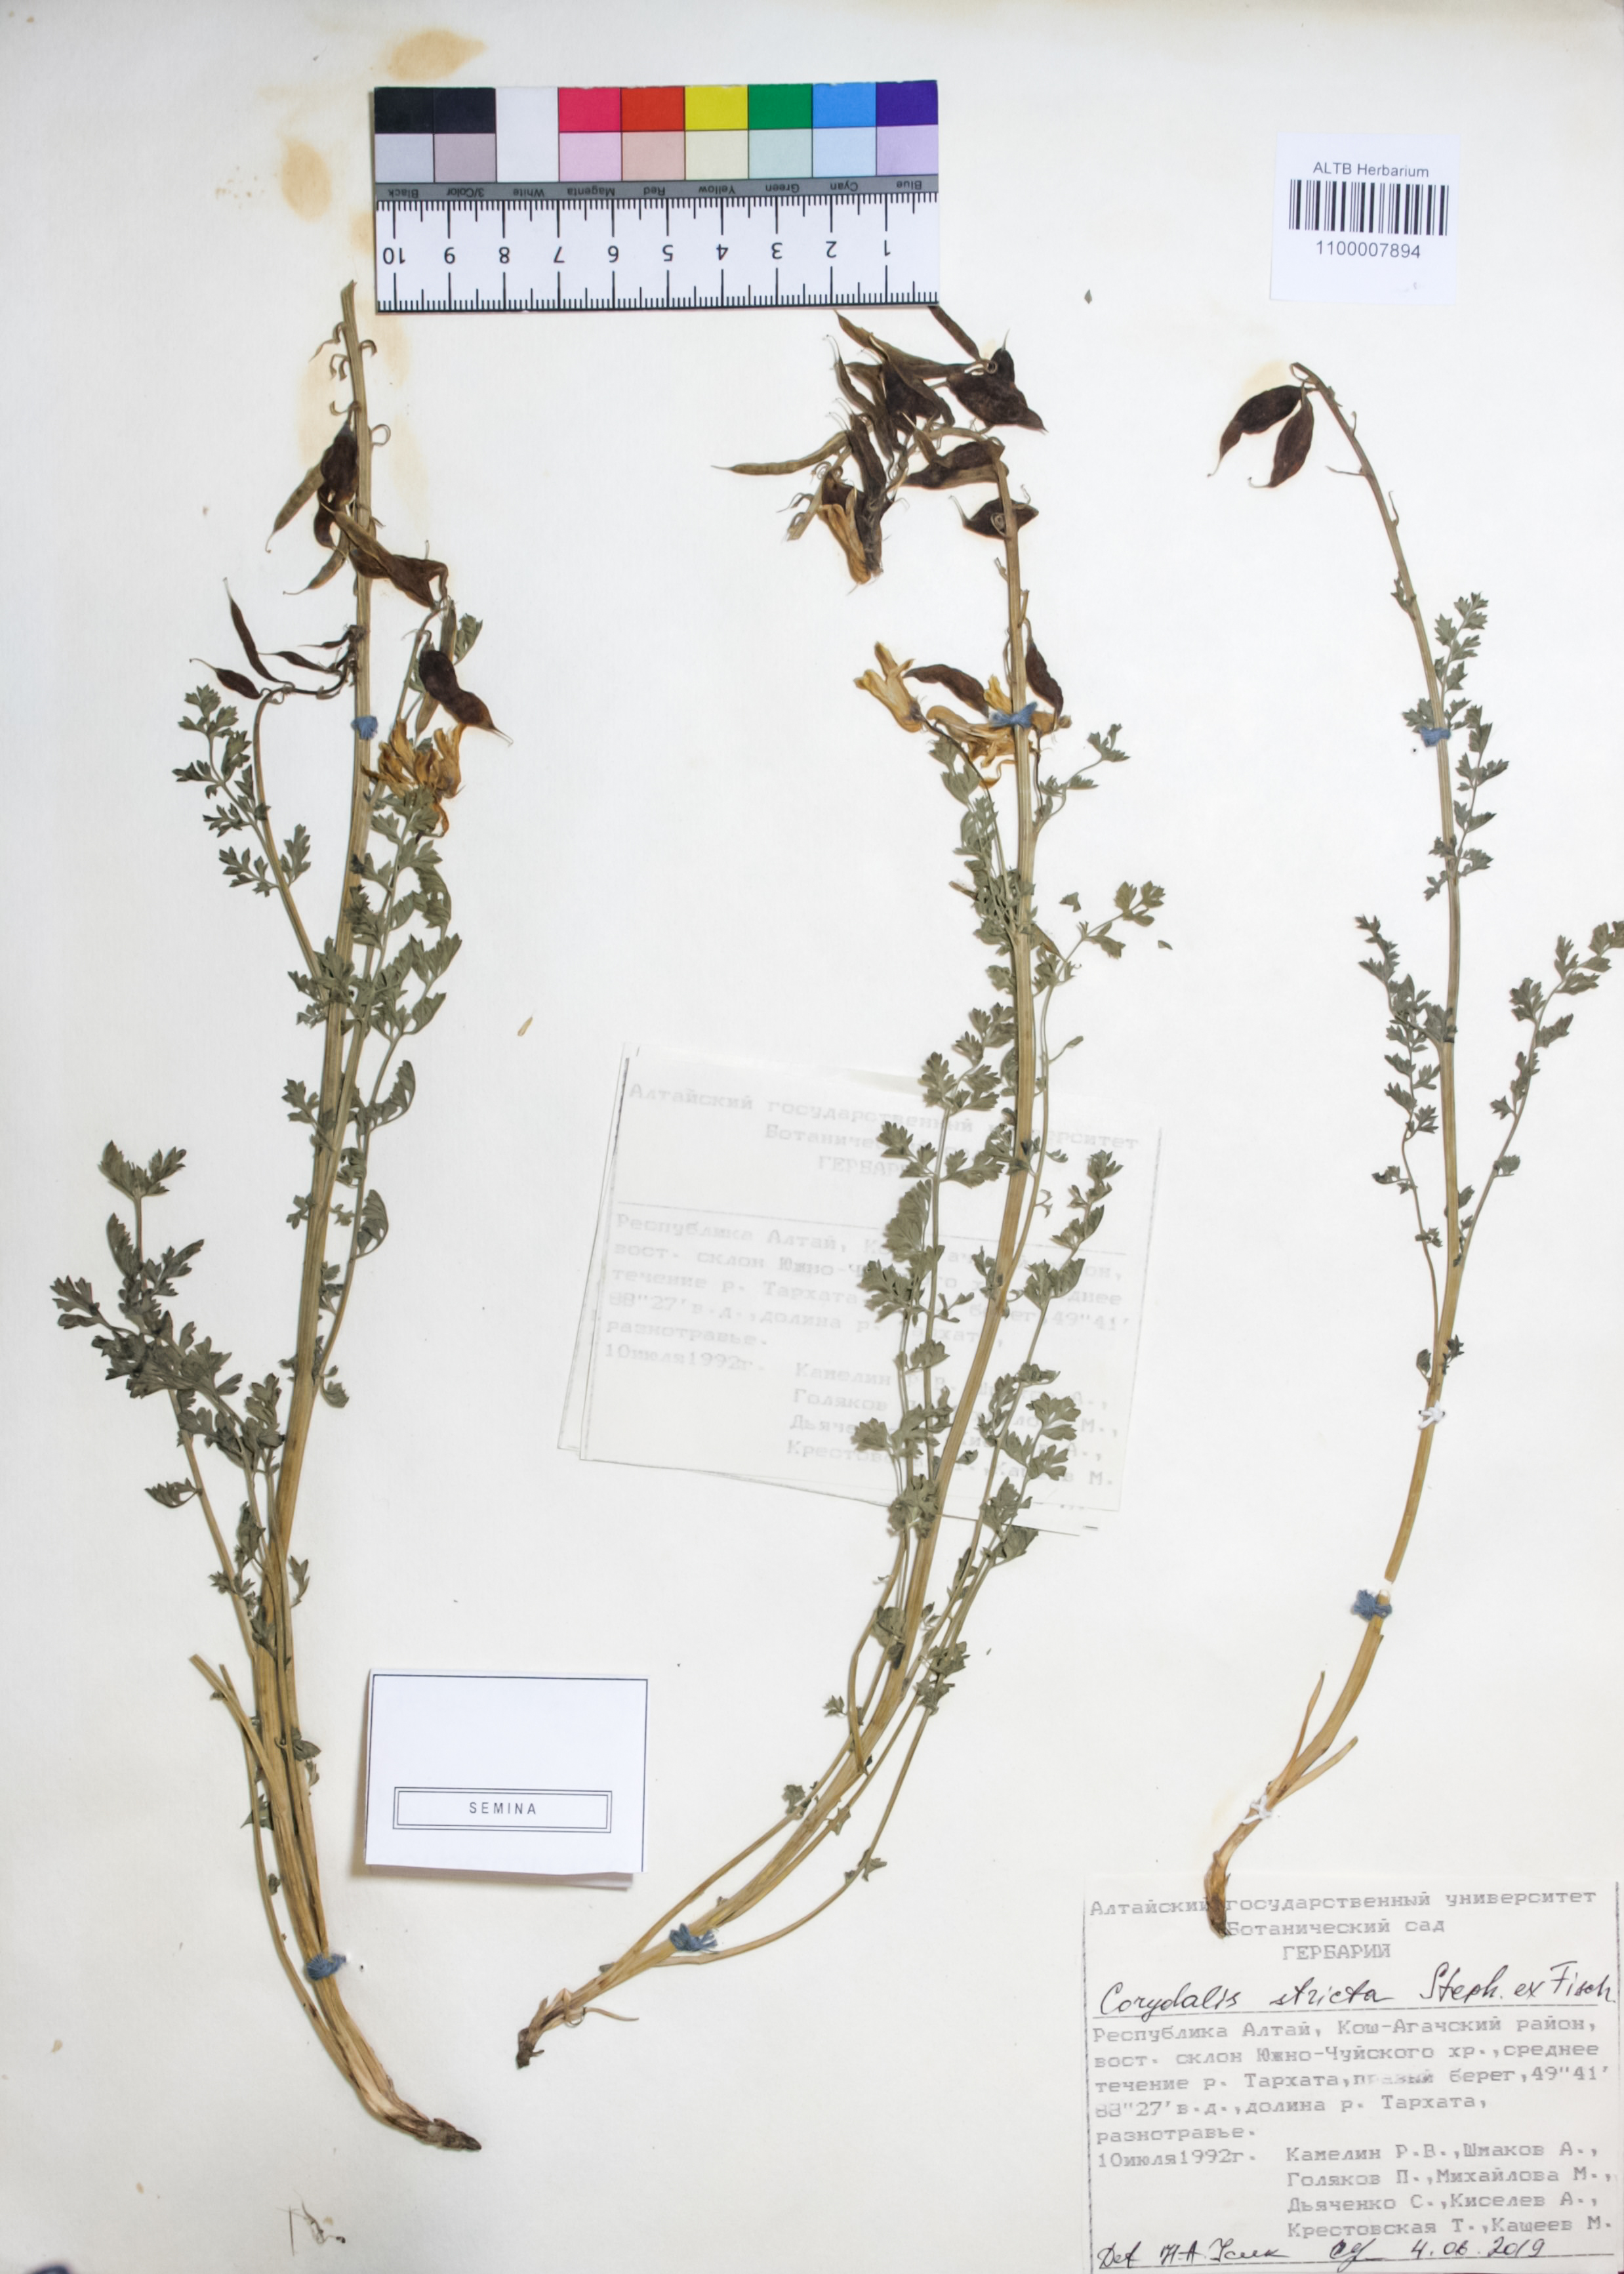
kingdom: Plantae
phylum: Tracheophyta
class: Magnoliopsida
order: Ranunculales
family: Papaveraceae
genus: Corydalis
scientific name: Corydalis stricta
